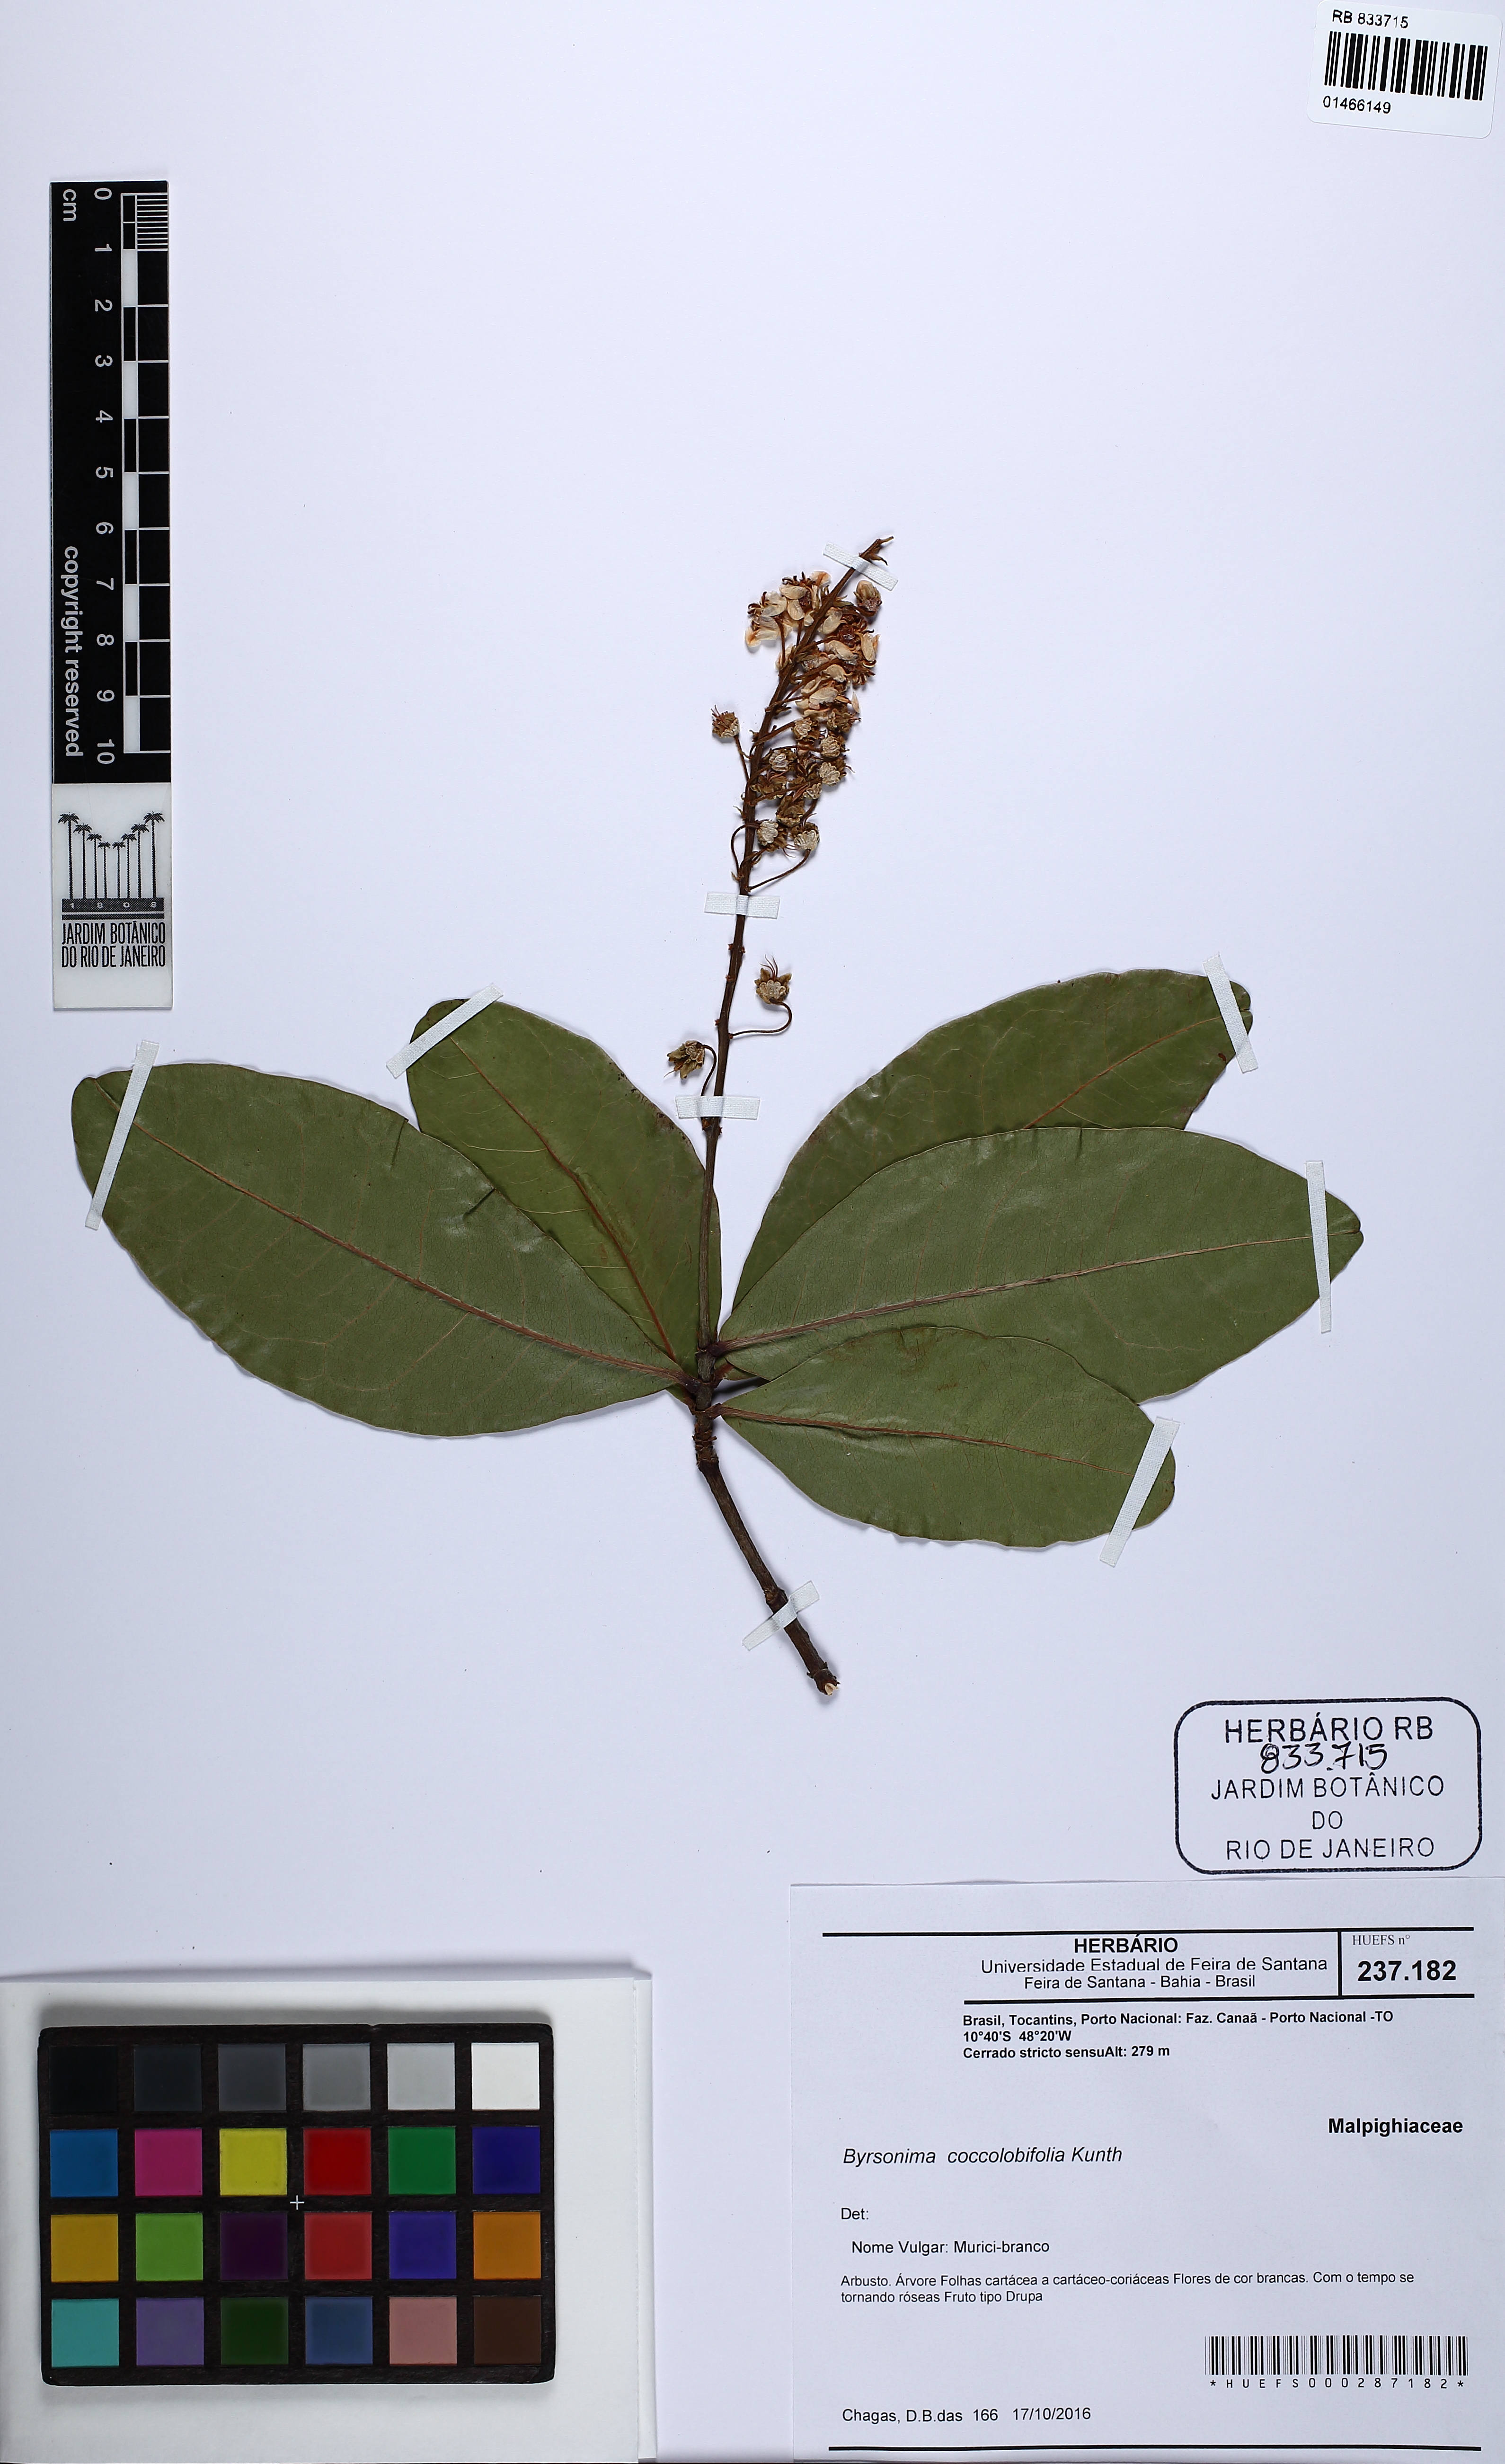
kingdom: Plantae
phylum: Tracheophyta
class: Magnoliopsida
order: Malpighiales
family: Malpighiaceae
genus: Byrsonima
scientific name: Byrsonima coccolobifolia
